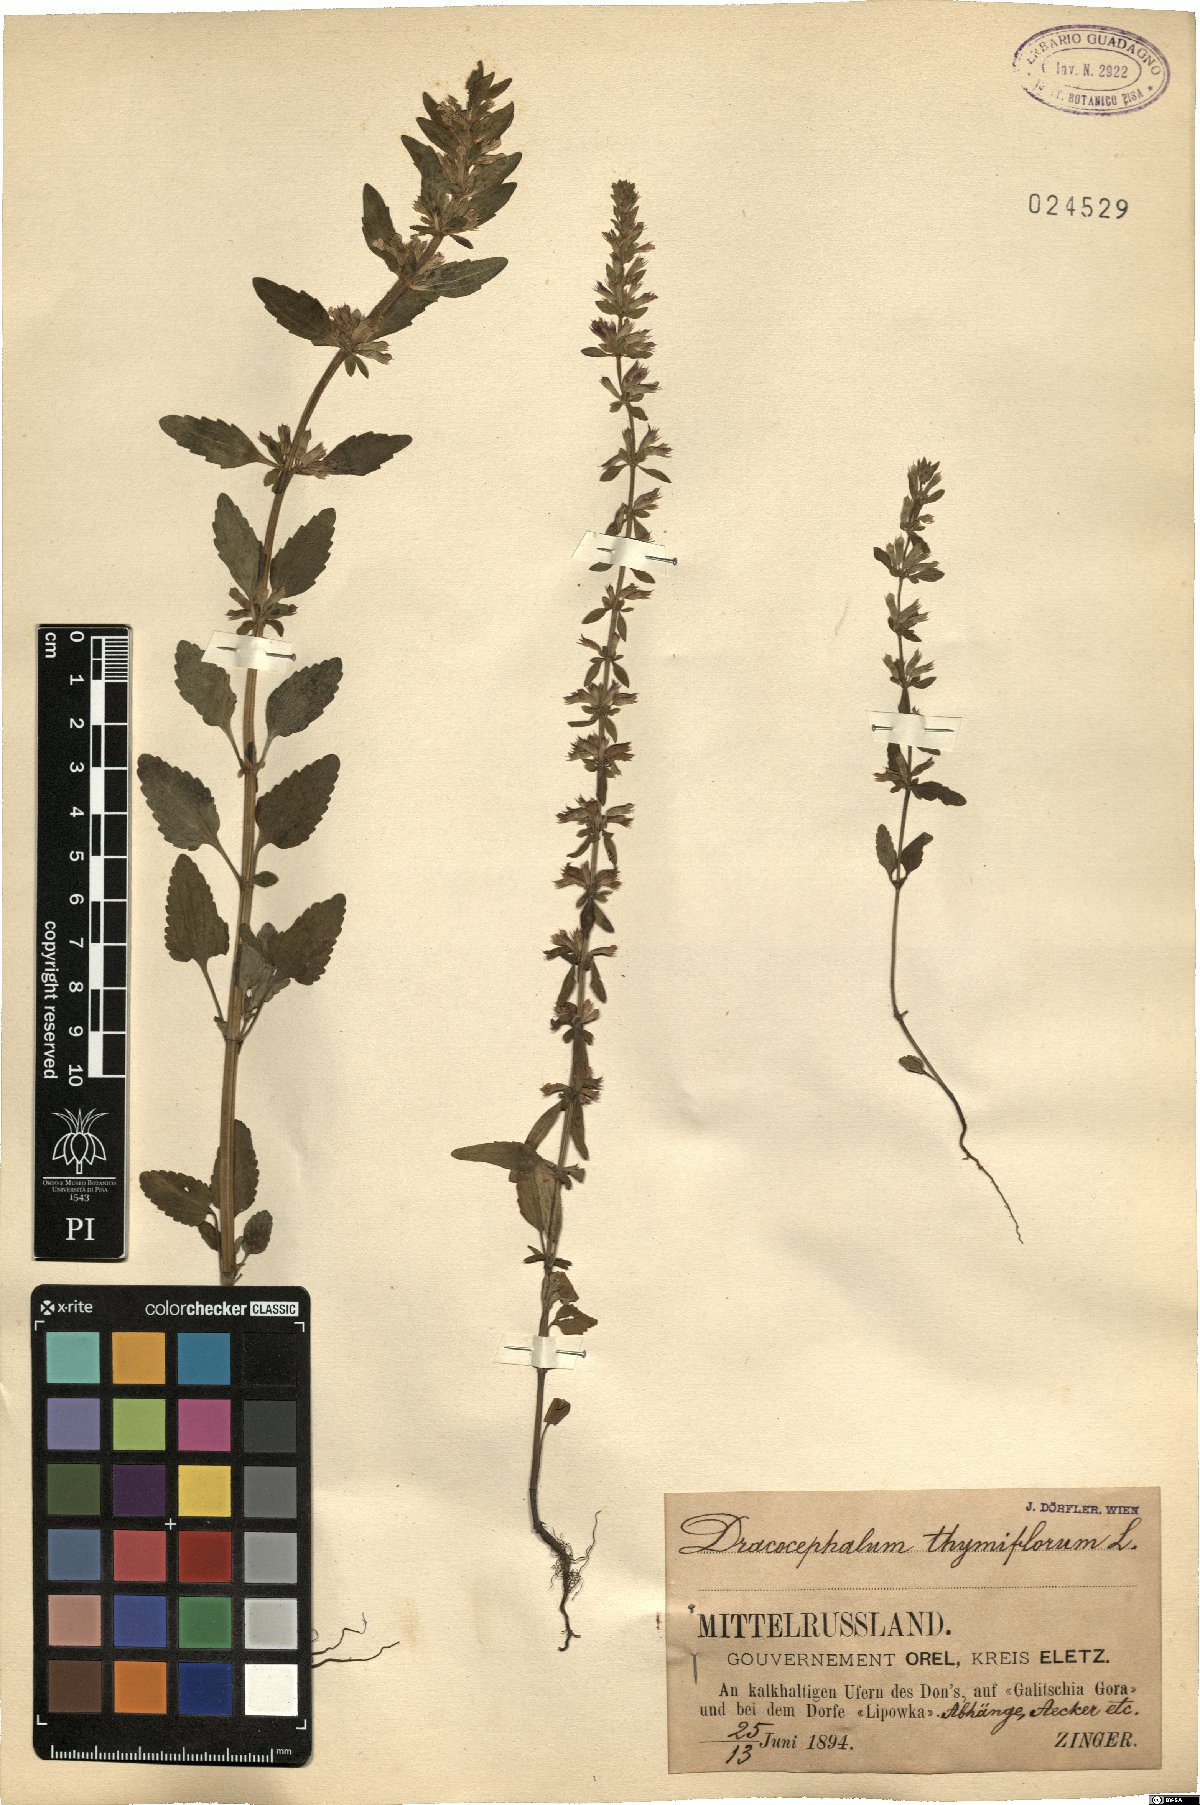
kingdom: Plantae
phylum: Tracheophyta
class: Magnoliopsida
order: Lamiales
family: Lamiaceae
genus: Dracocephalum
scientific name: Dracocephalum thymiflorum
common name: Thymeleaf dragonhead
